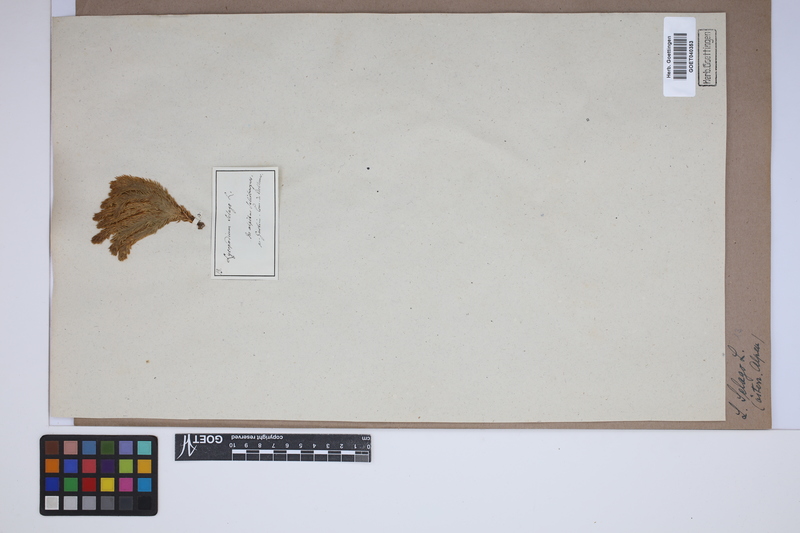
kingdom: Plantae
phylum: Tracheophyta
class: Lycopodiopsida
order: Lycopodiales
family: Lycopodiaceae
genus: Huperzia
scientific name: Huperzia selago
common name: Northern firmoss
